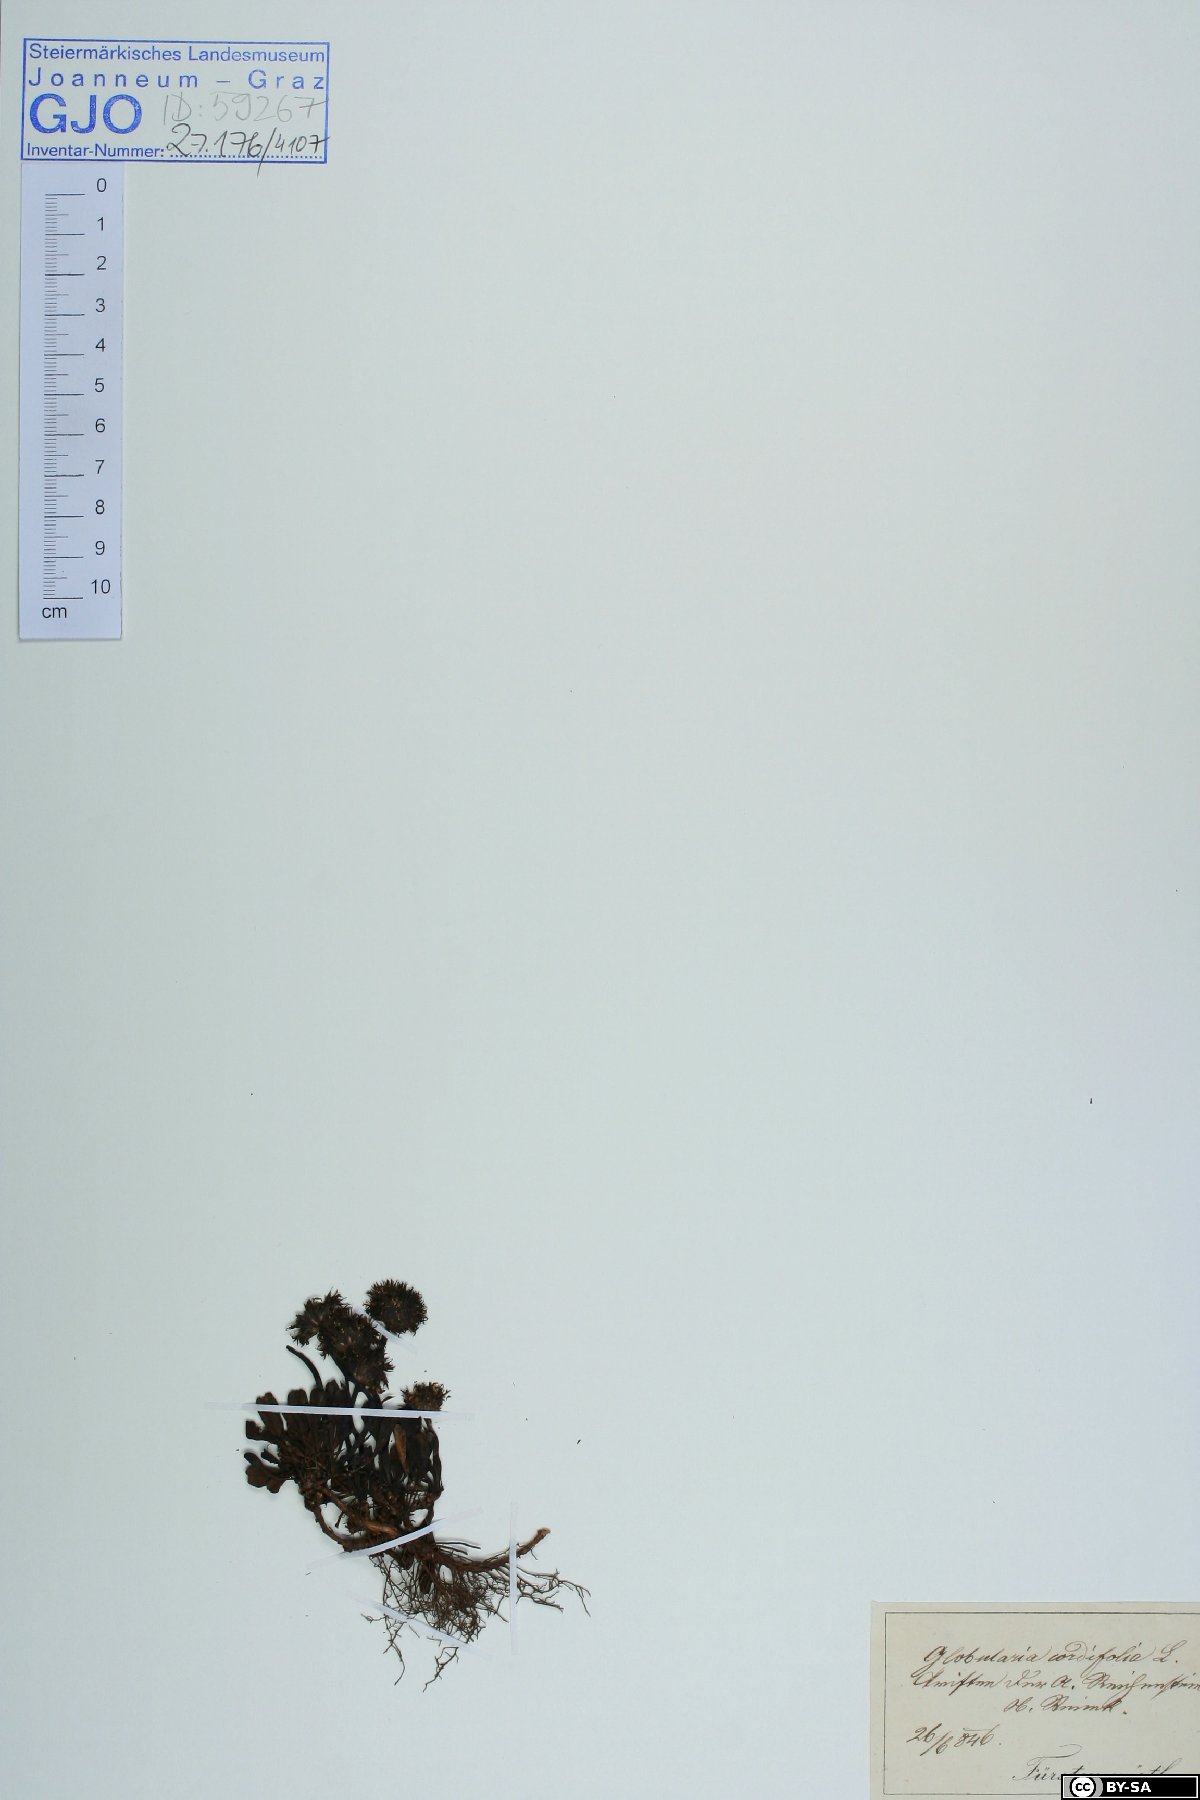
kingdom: Plantae
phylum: Tracheophyta
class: Magnoliopsida
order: Lamiales
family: Plantaginaceae
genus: Globularia
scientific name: Globularia cordifolia
